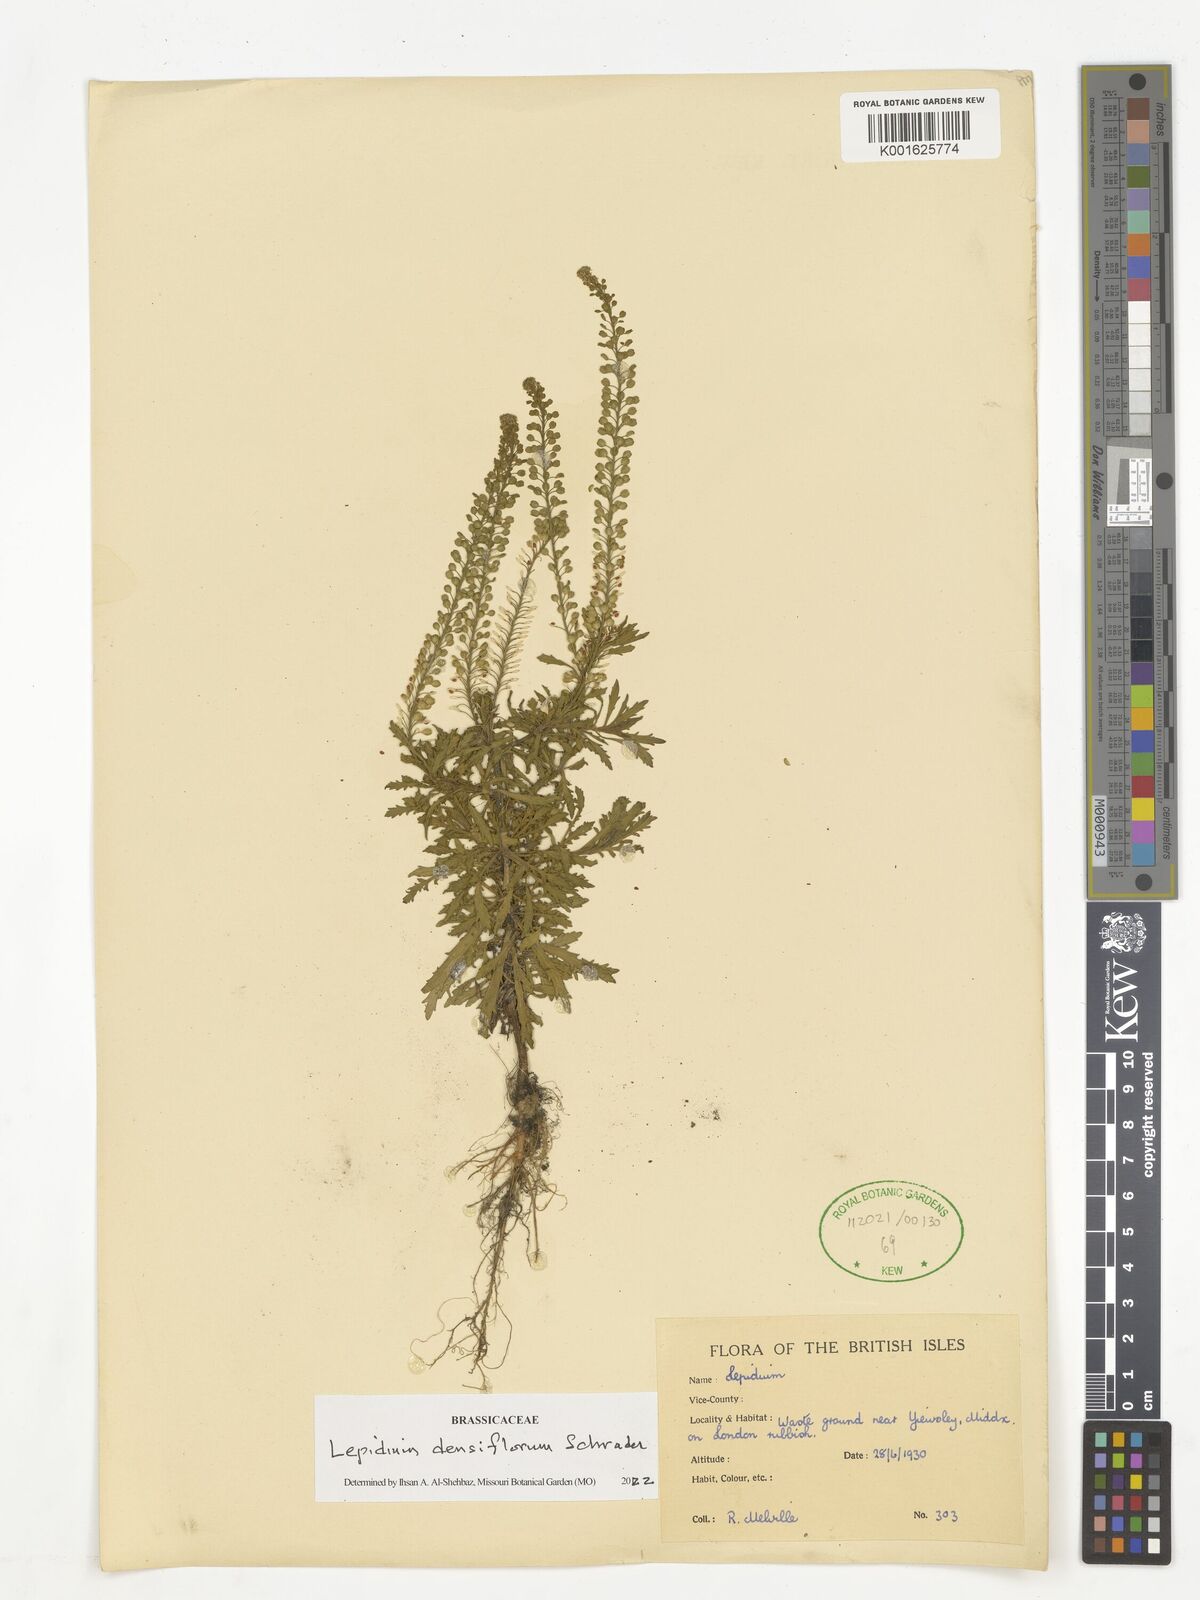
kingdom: Plantae
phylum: Tracheophyta
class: Magnoliopsida
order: Brassicales
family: Brassicaceae
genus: Lepidium
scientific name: Lepidium densiflorum
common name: Miner's pepperwort
